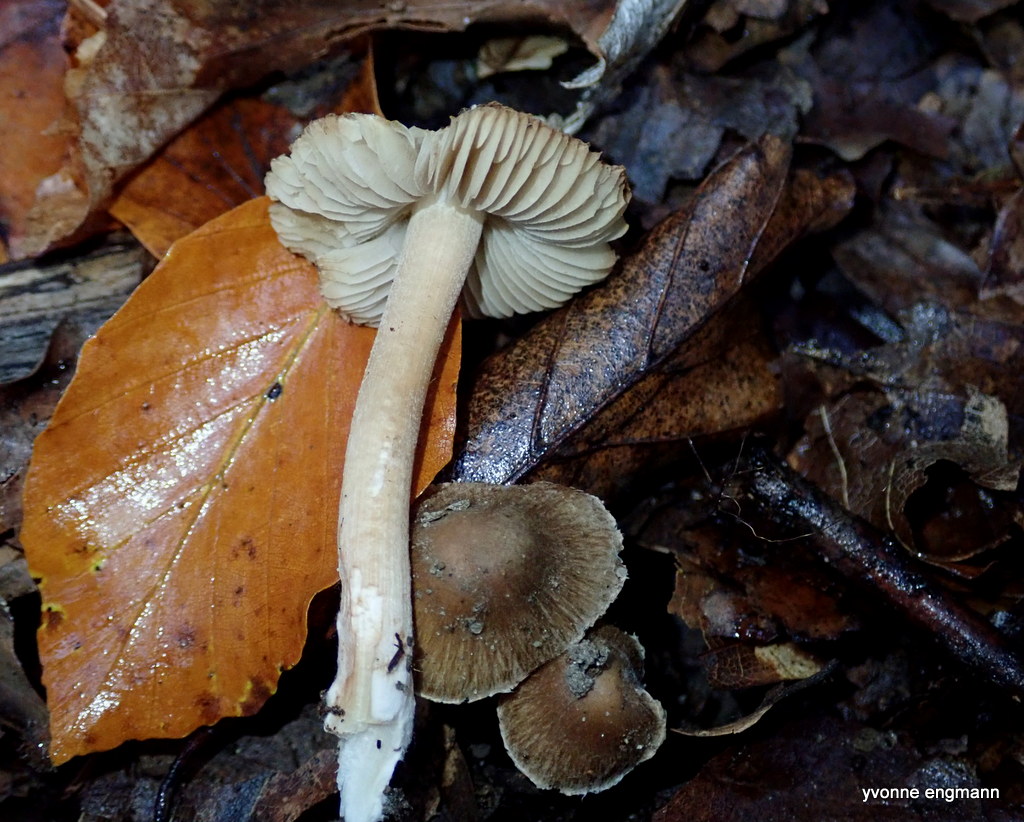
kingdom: Fungi
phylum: Basidiomycota
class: Agaricomycetes
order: Agaricales
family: Inocybaceae
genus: Inocybe
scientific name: Inocybe
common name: trævlhat
